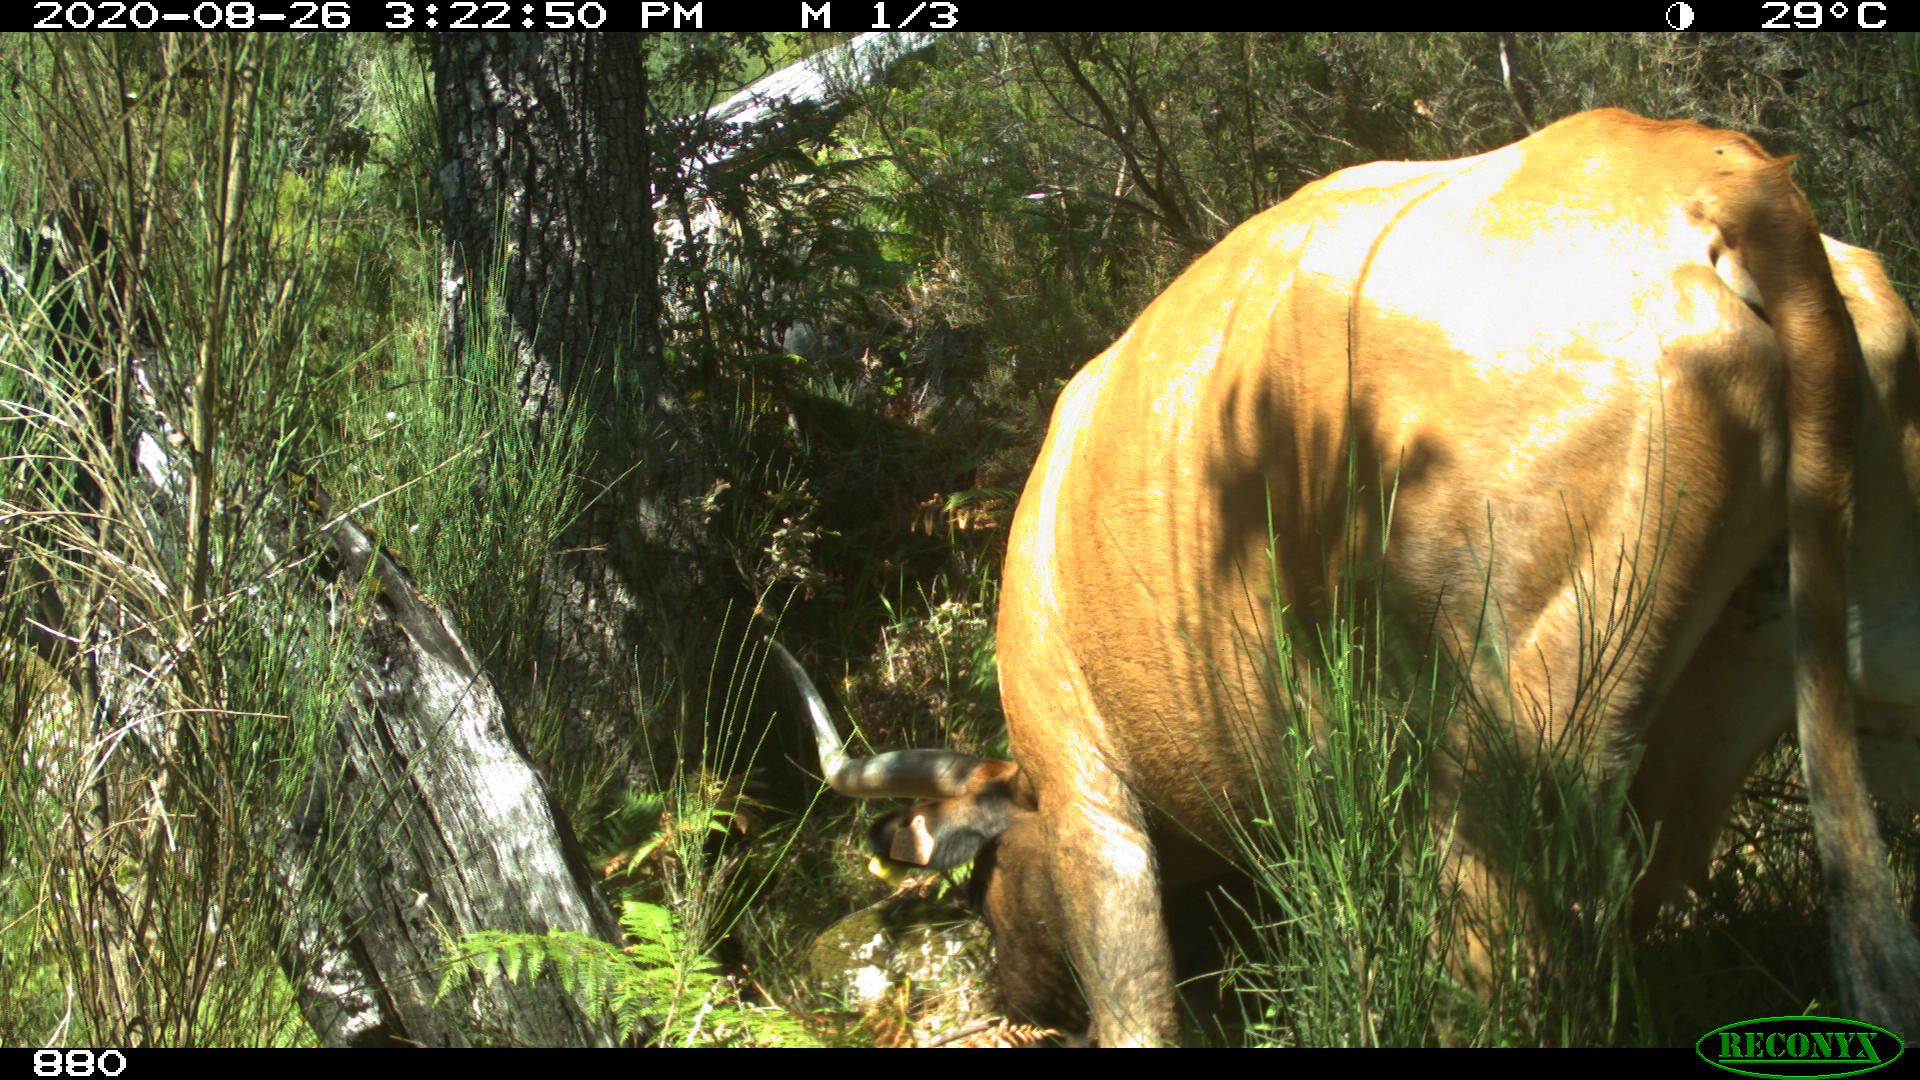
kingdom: Animalia
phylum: Chordata
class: Mammalia
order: Artiodactyla
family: Bovidae
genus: Bos
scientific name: Bos taurus
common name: Domesticated cattle
